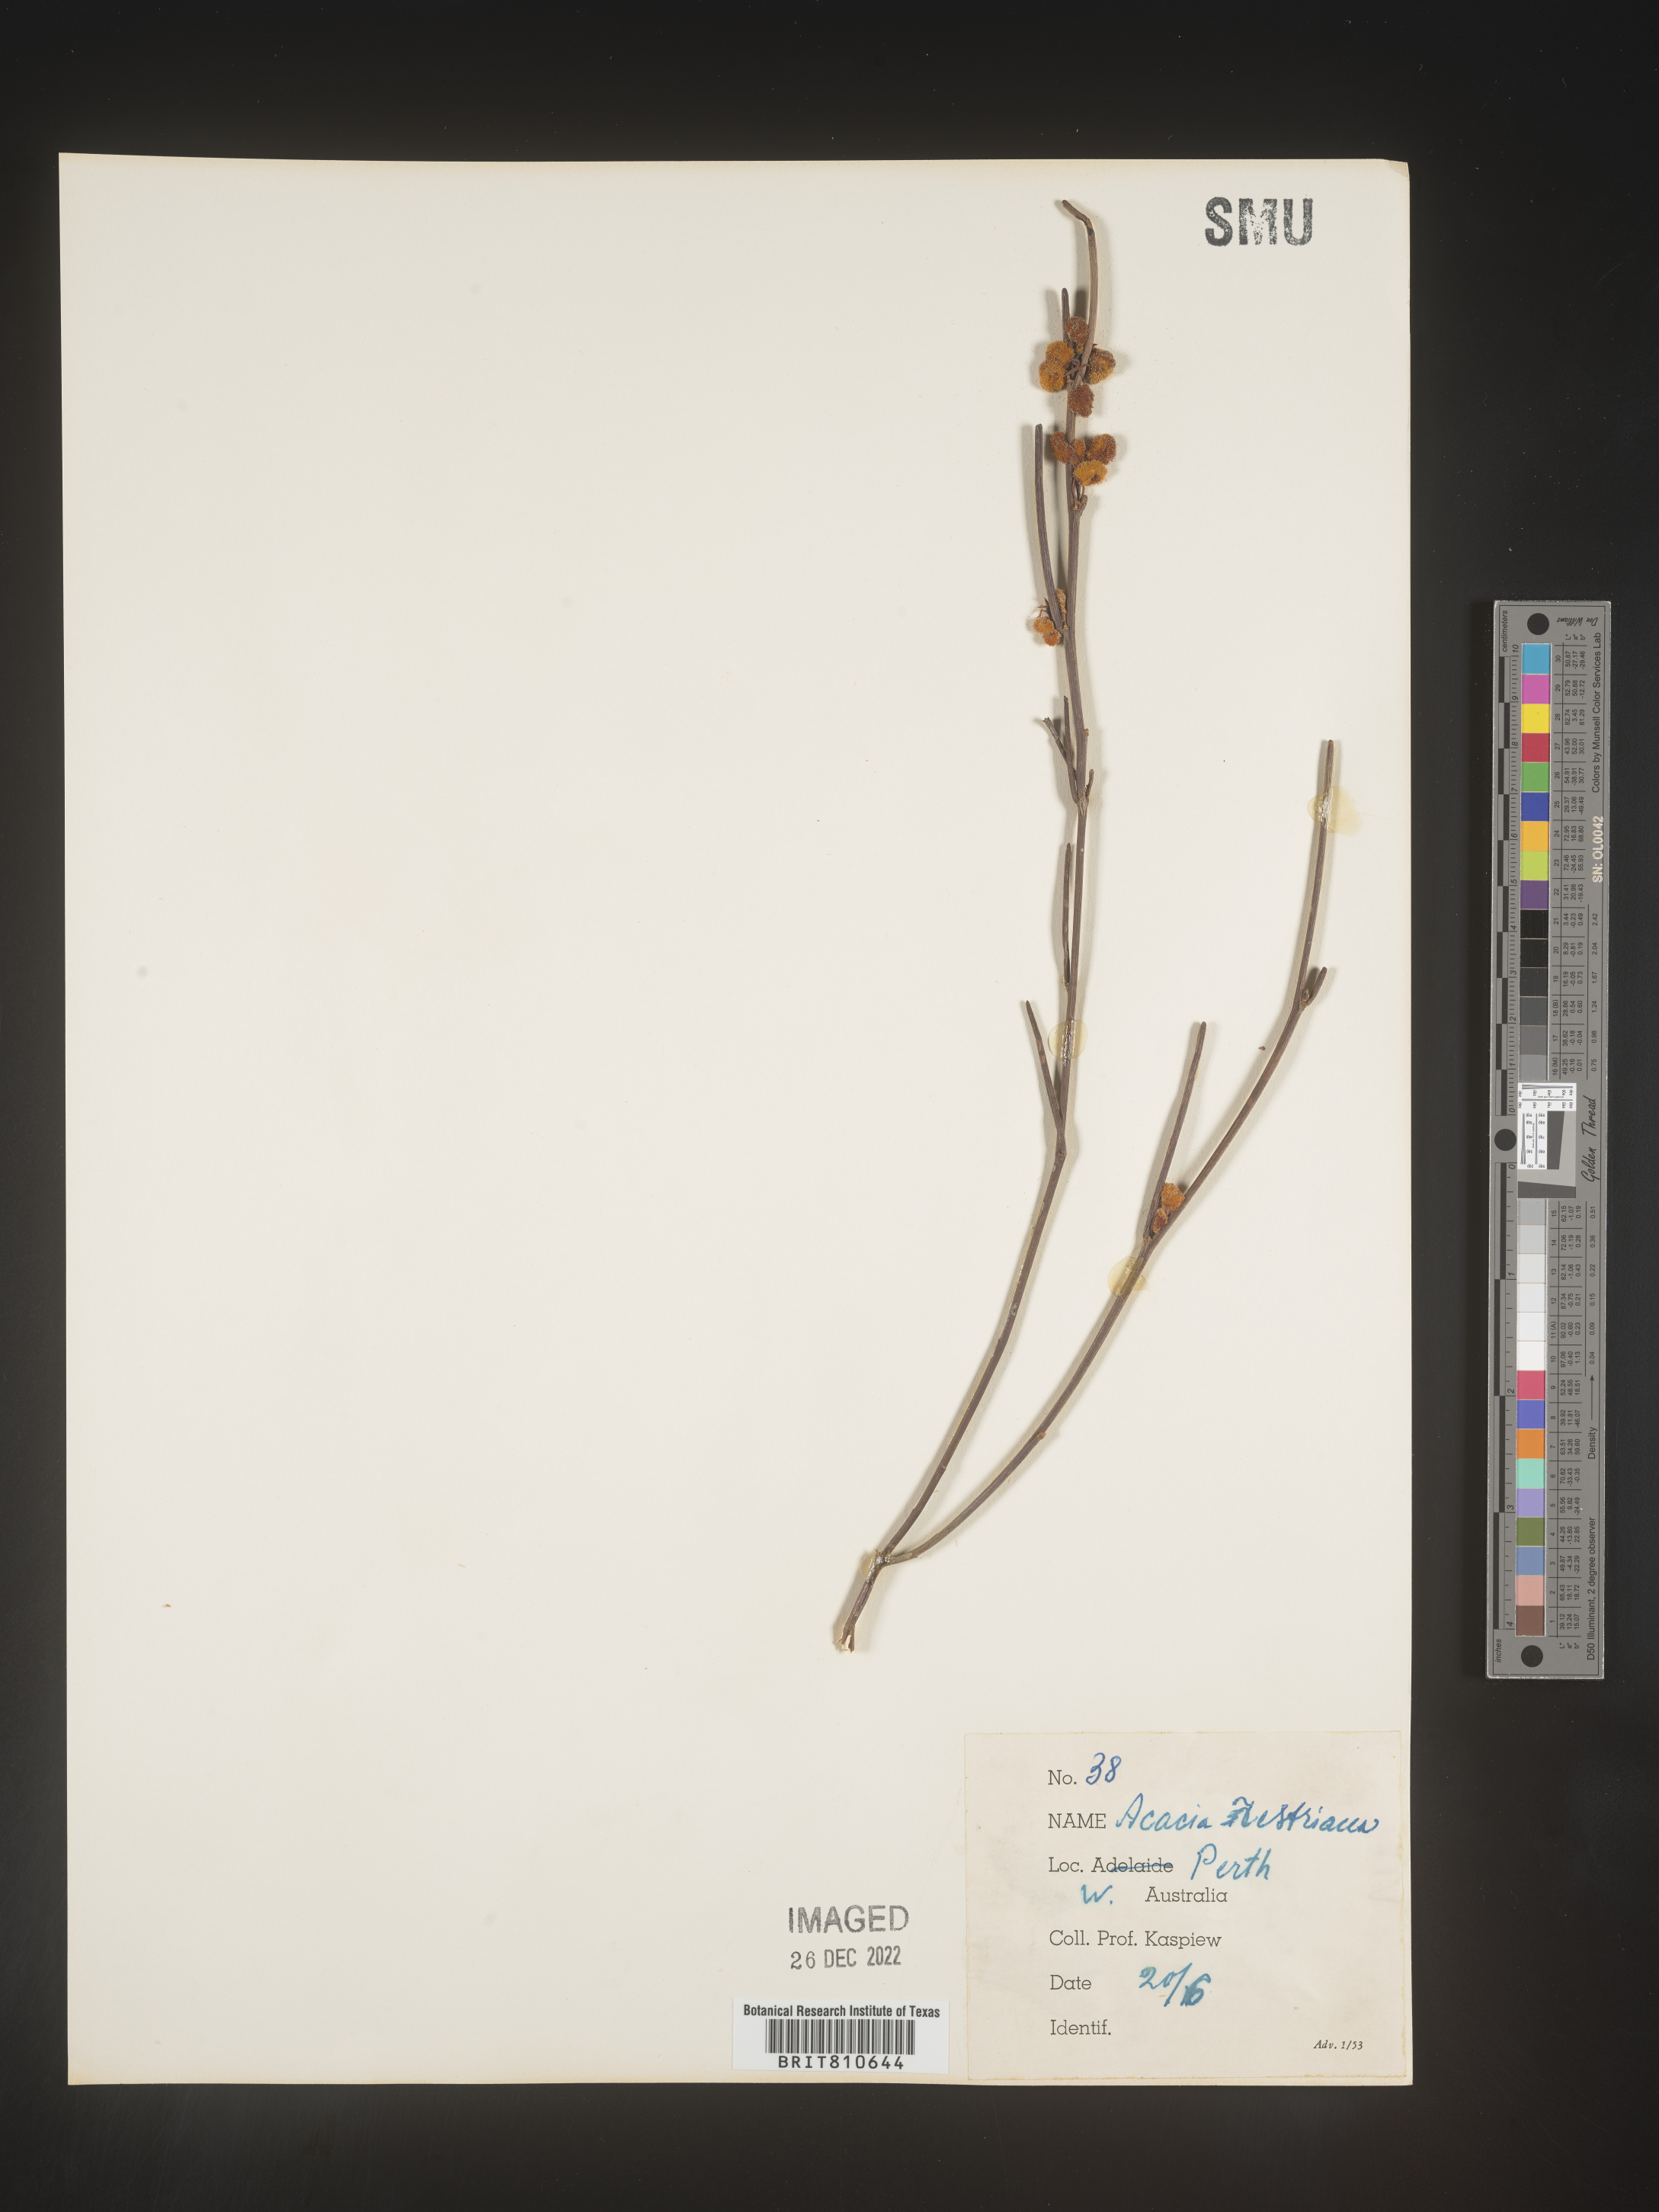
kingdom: Plantae
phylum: Tracheophyta
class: Magnoliopsida
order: Fabales
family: Fabaceae
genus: Acacia
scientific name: Acacia
